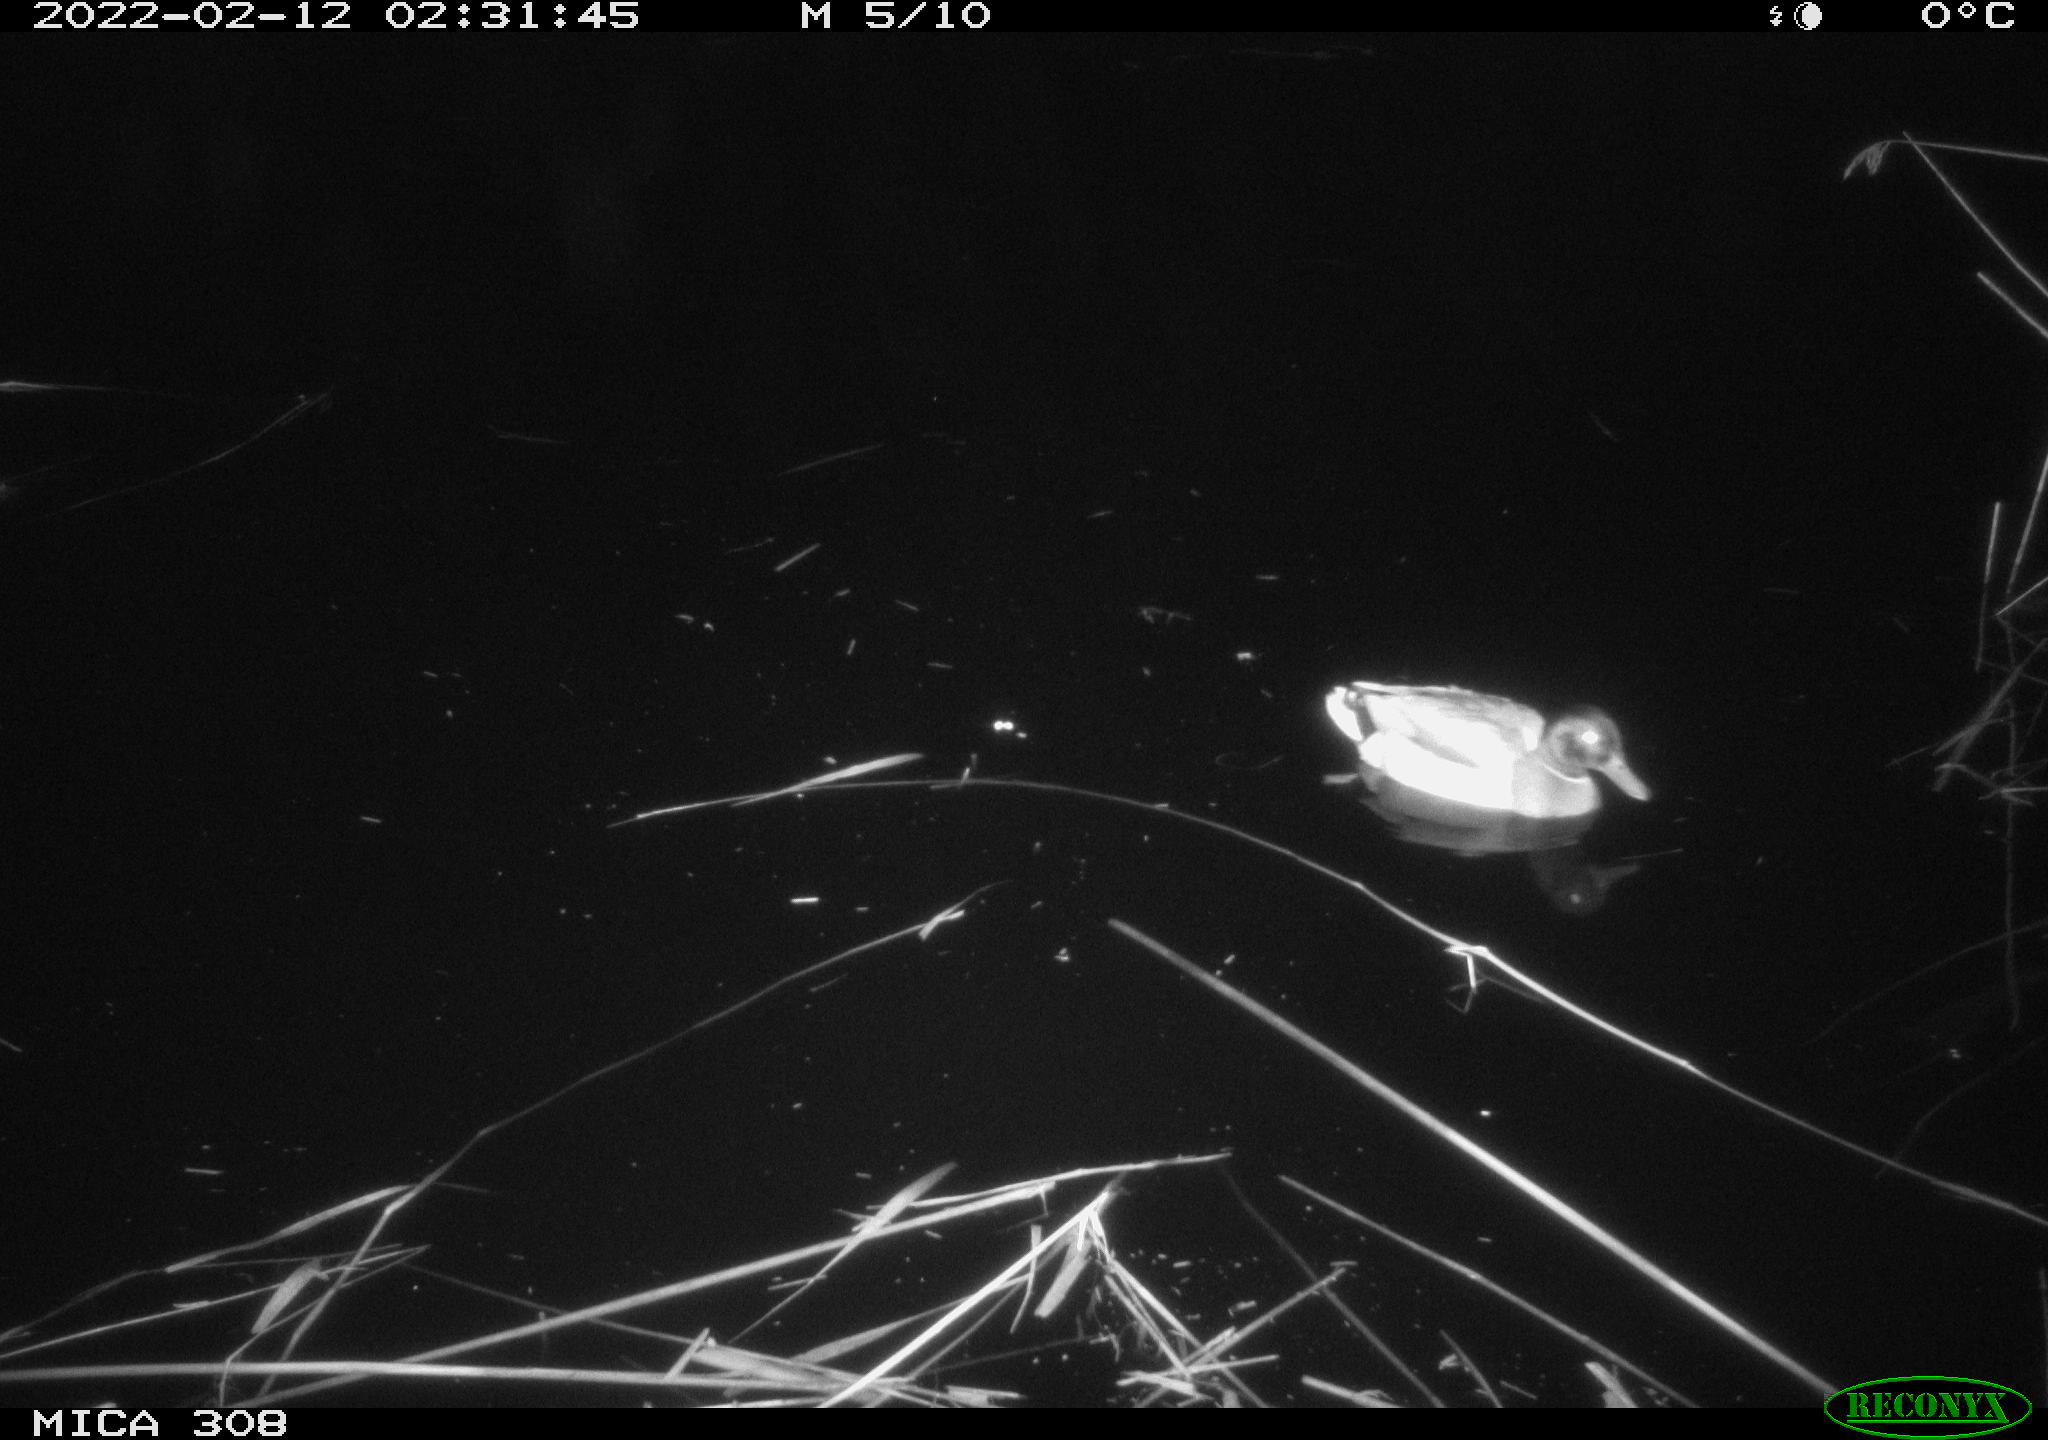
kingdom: Animalia
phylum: Chordata
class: Aves
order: Anseriformes
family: Anatidae
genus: Anas
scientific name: Anas platyrhynchos
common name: Mallard
